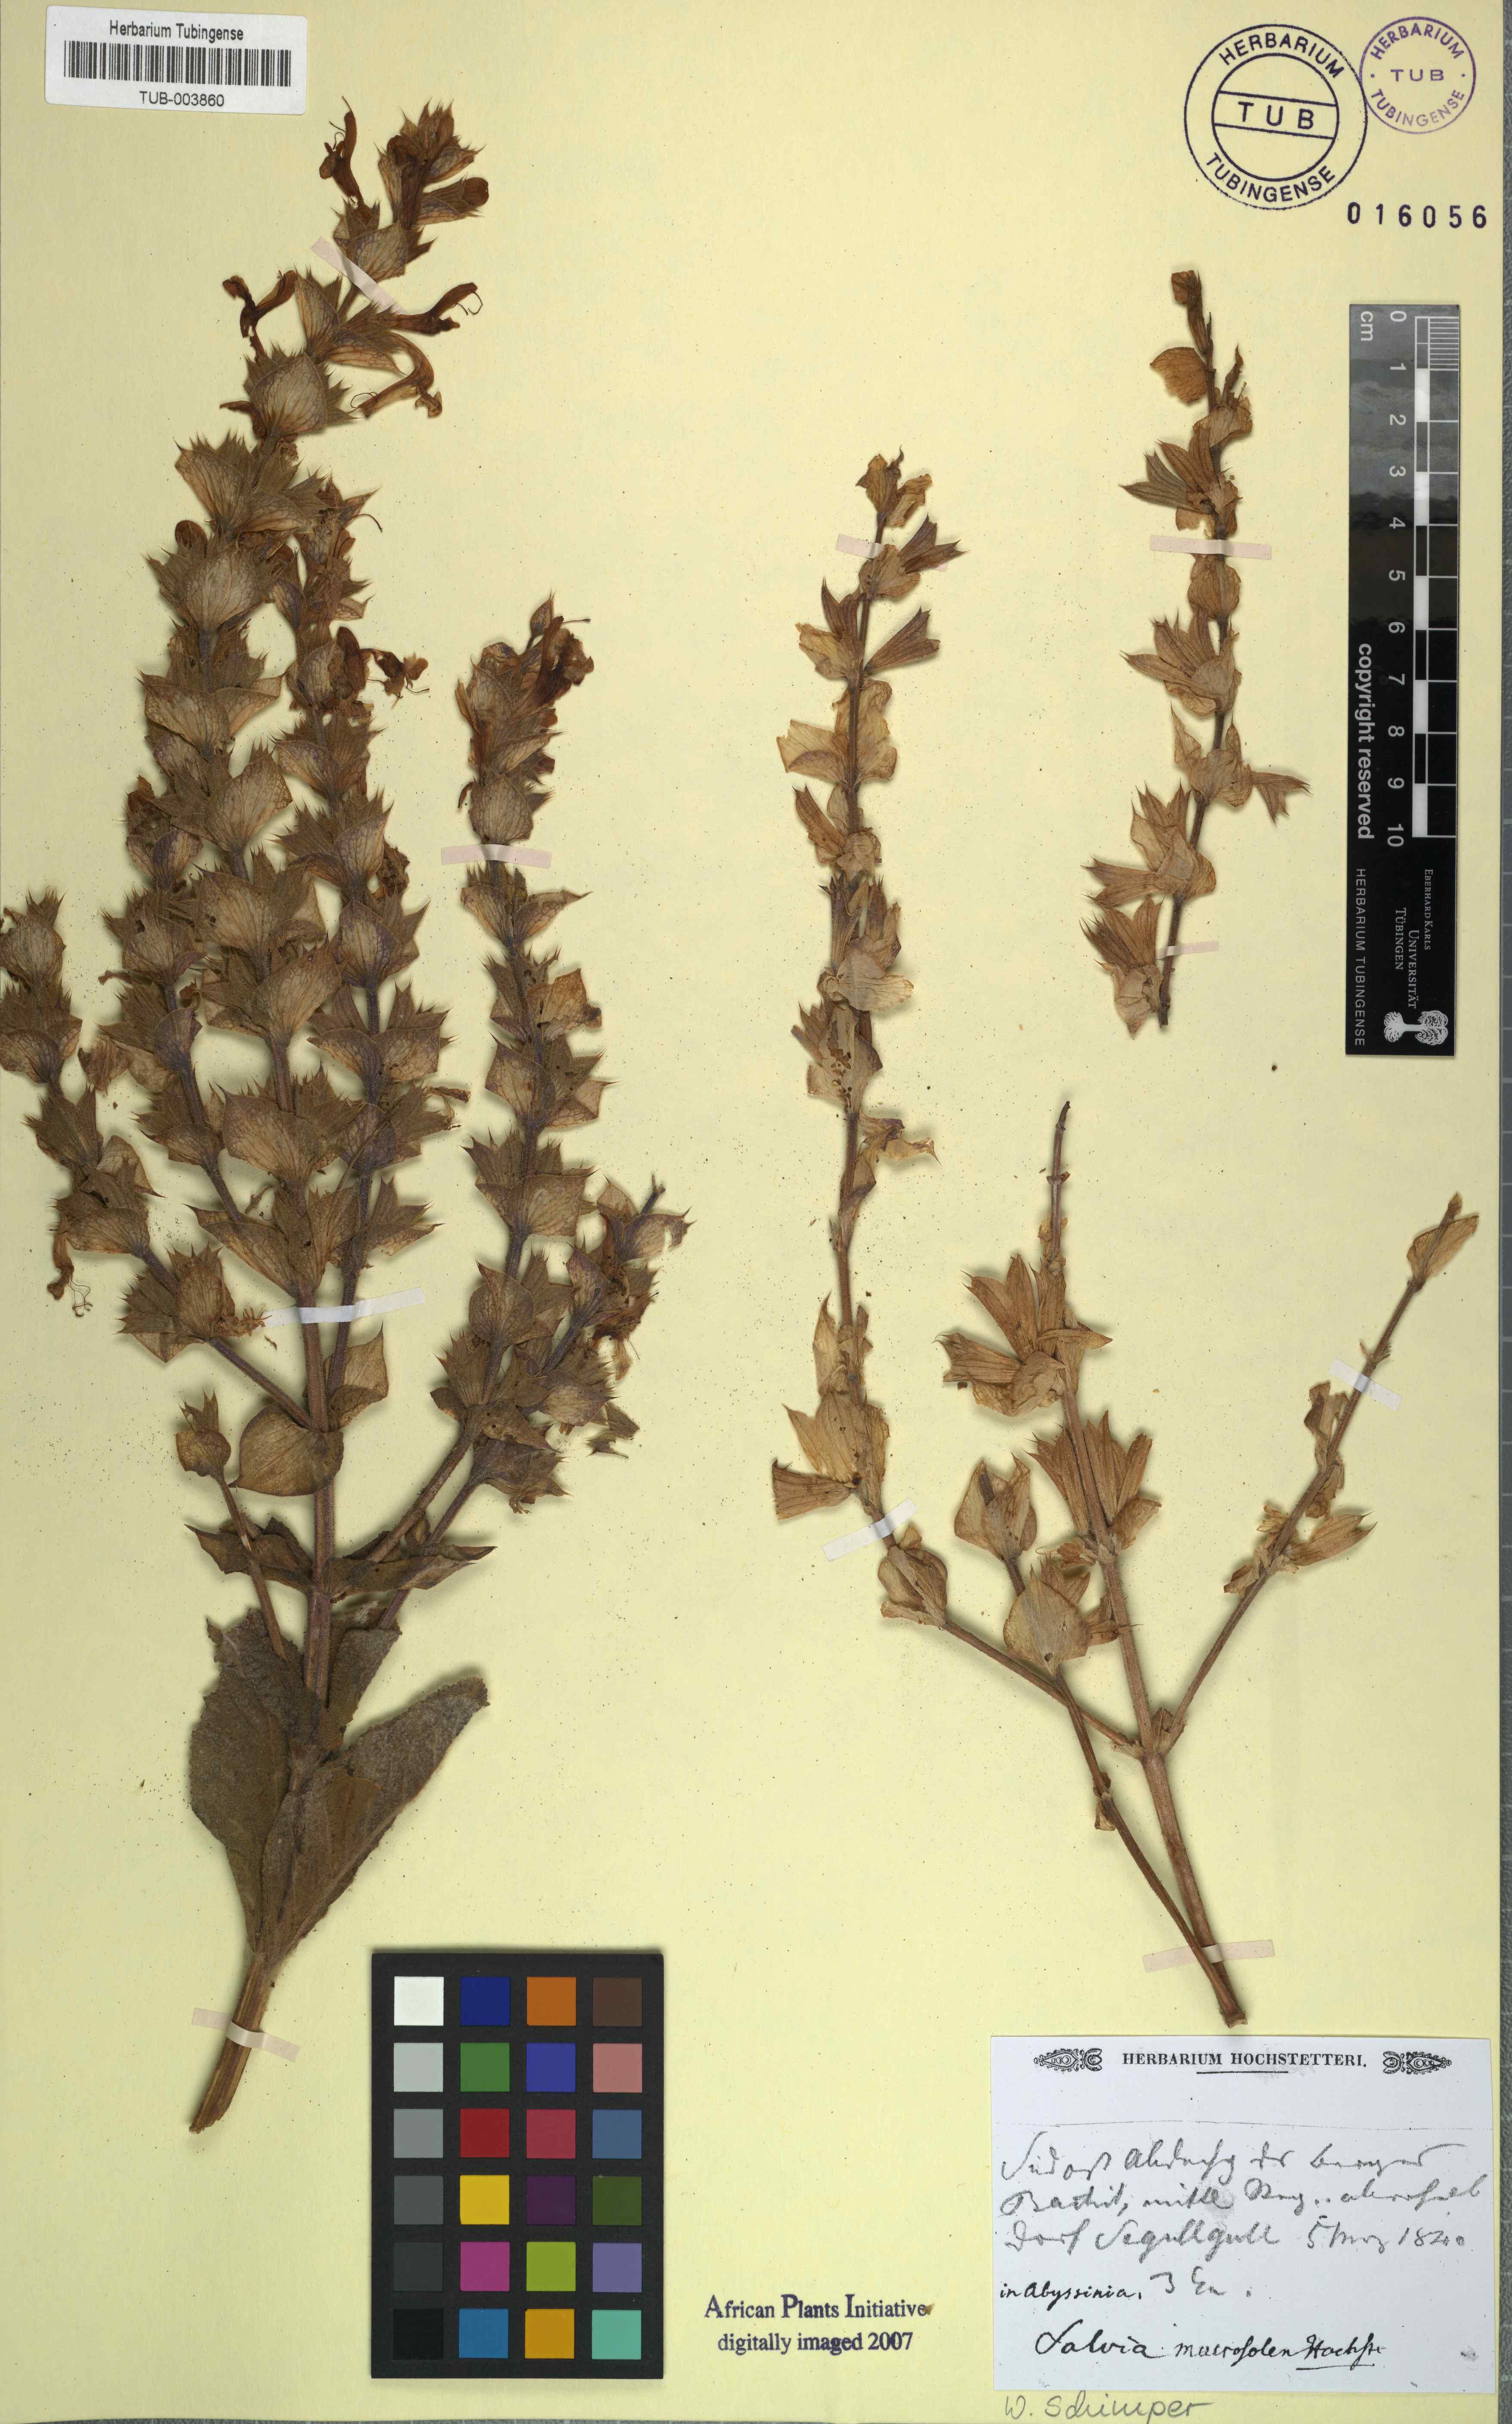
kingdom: Plantae
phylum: Tracheophyta
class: Magnoliopsida
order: Lamiales
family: Lamiaceae
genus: Salvia
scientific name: Salvia
